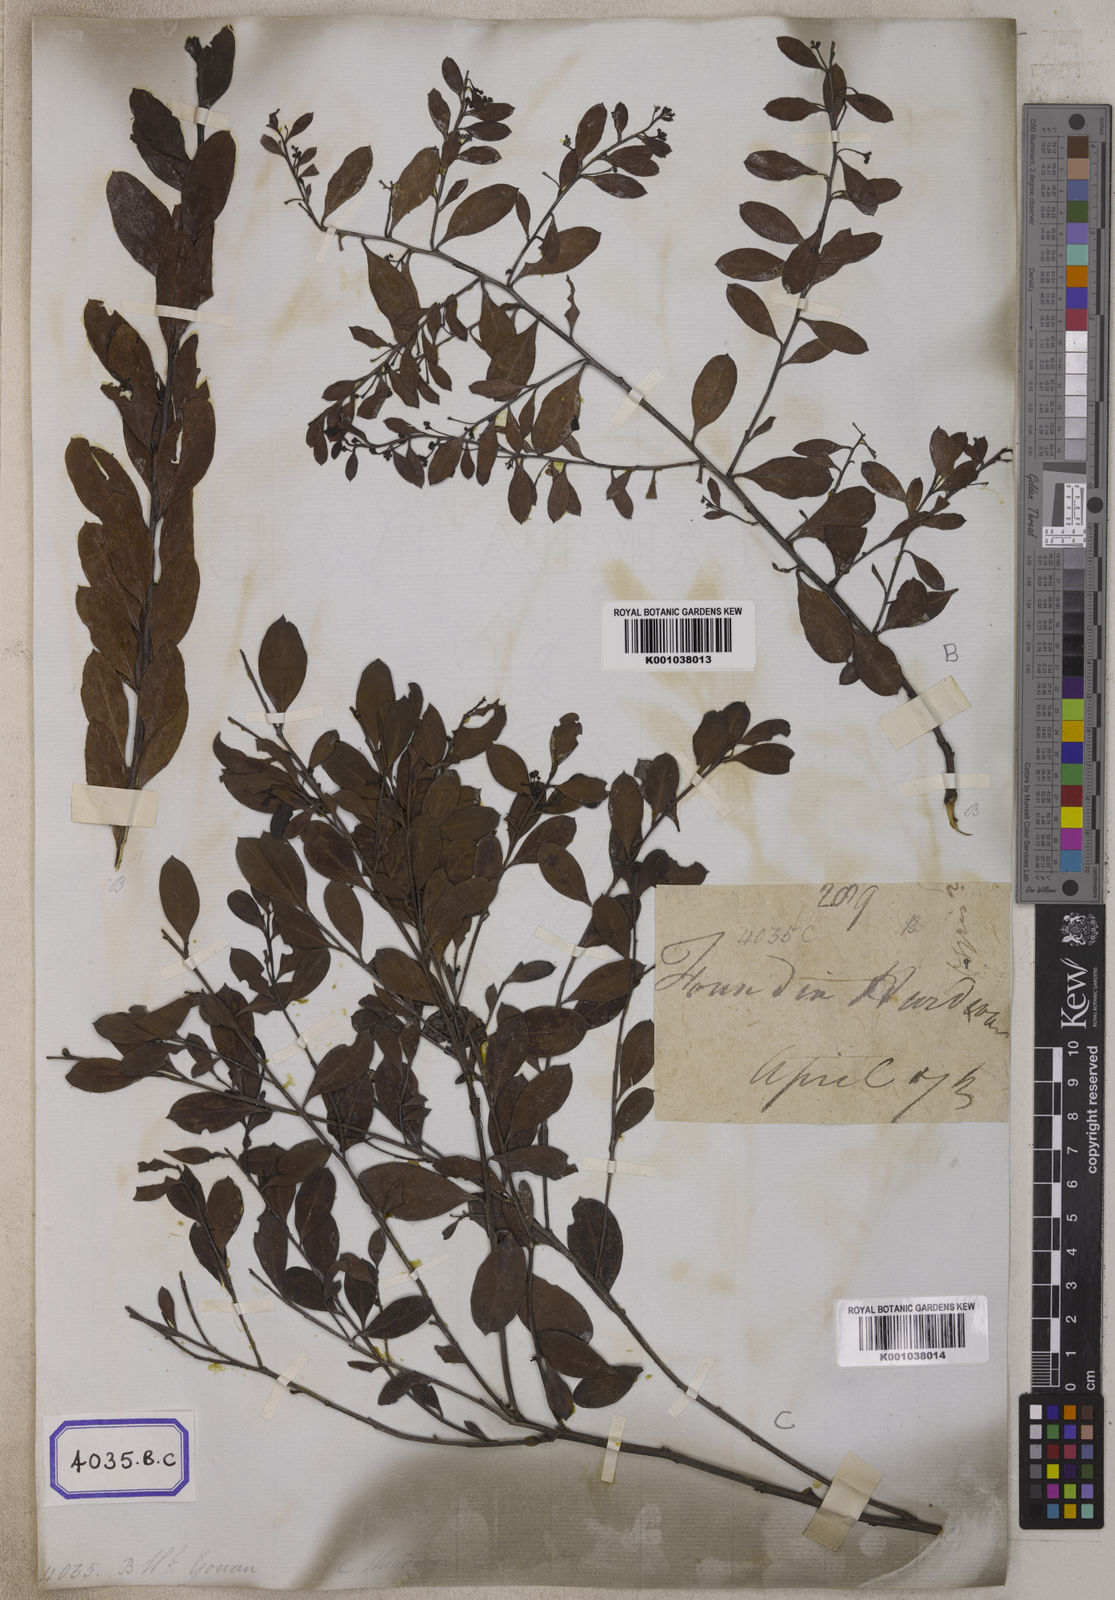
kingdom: Plantae
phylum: Tracheophyta
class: Magnoliopsida
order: Santalales
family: Santalaceae
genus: Osyris
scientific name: Osyris
